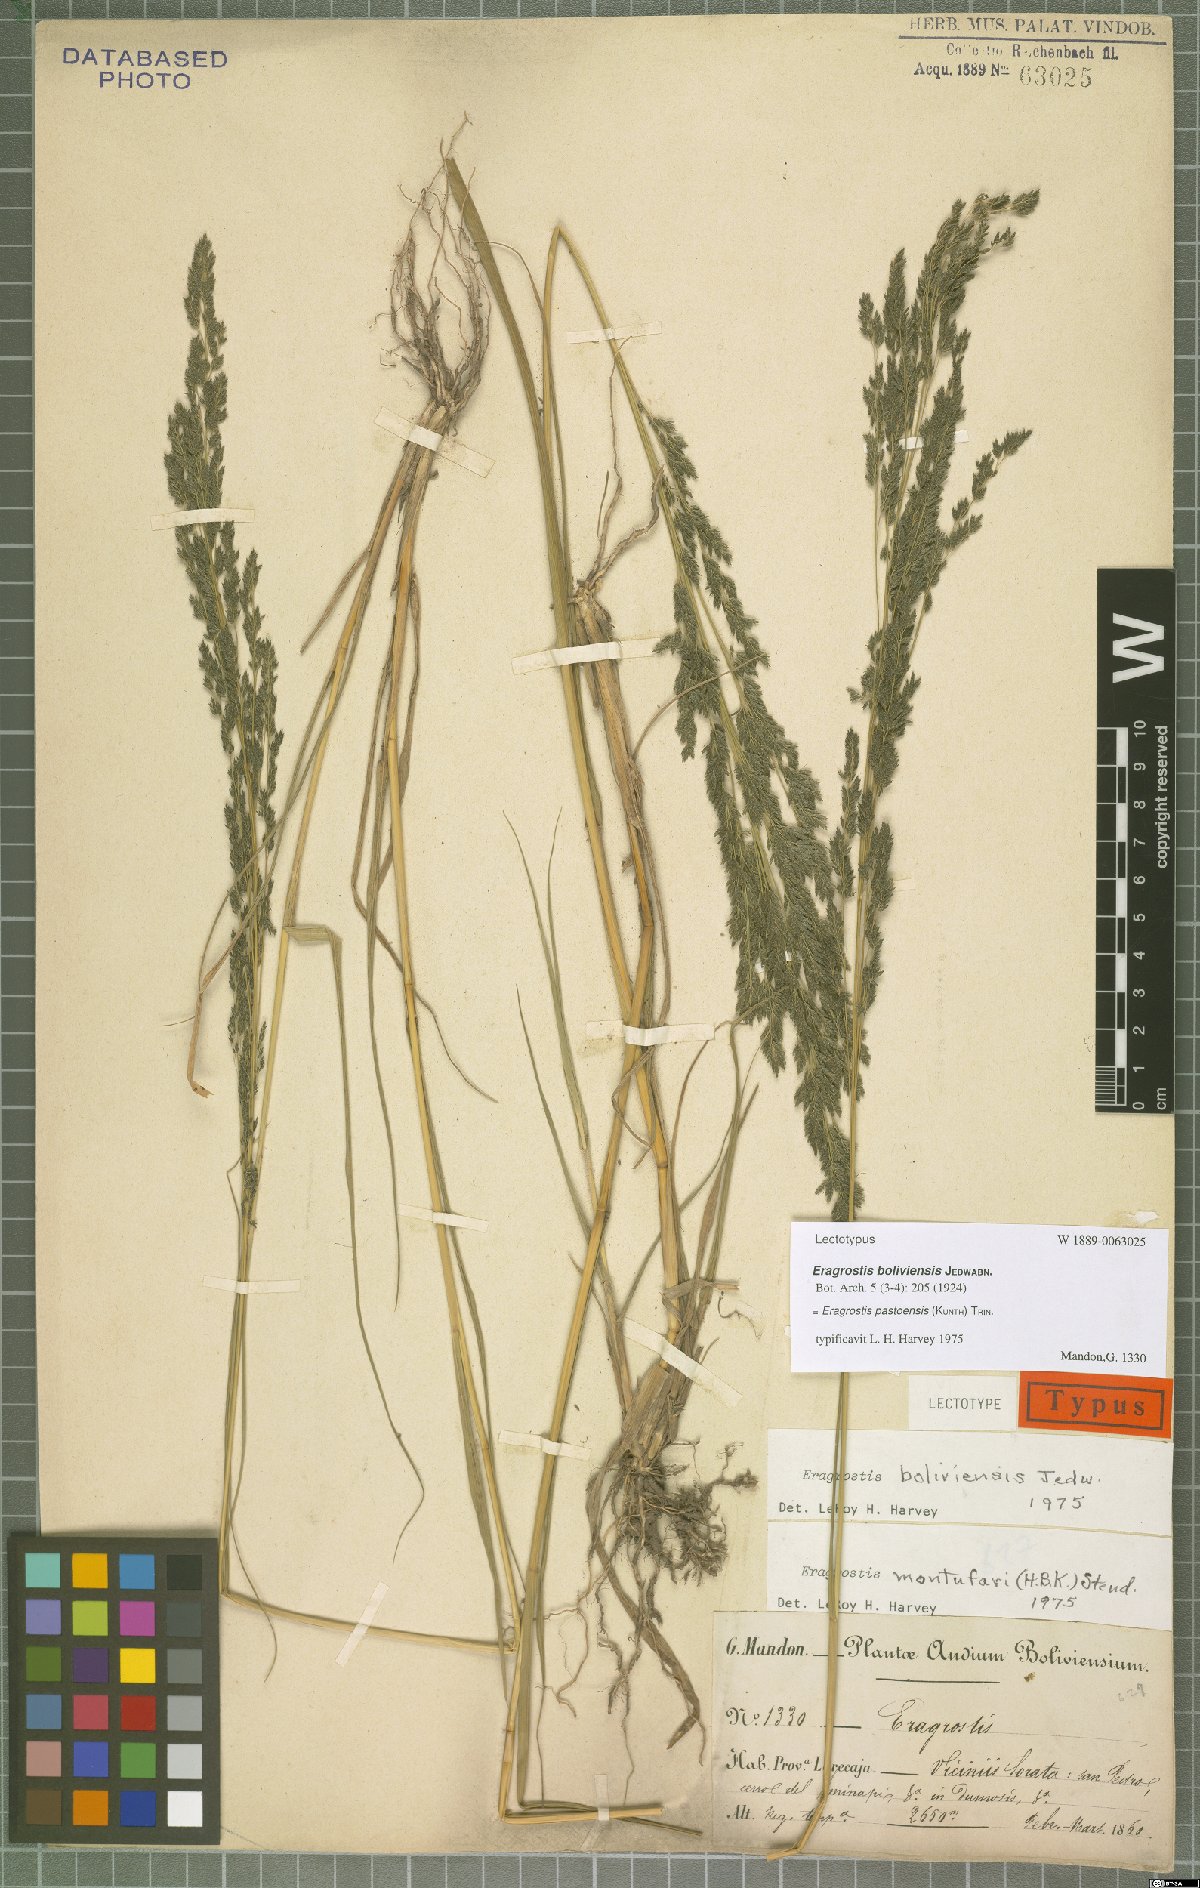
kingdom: Plantae
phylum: Tracheophyta
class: Liliopsida
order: Poales
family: Poaceae
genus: Eragrostis
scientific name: Eragrostis pastoensis
